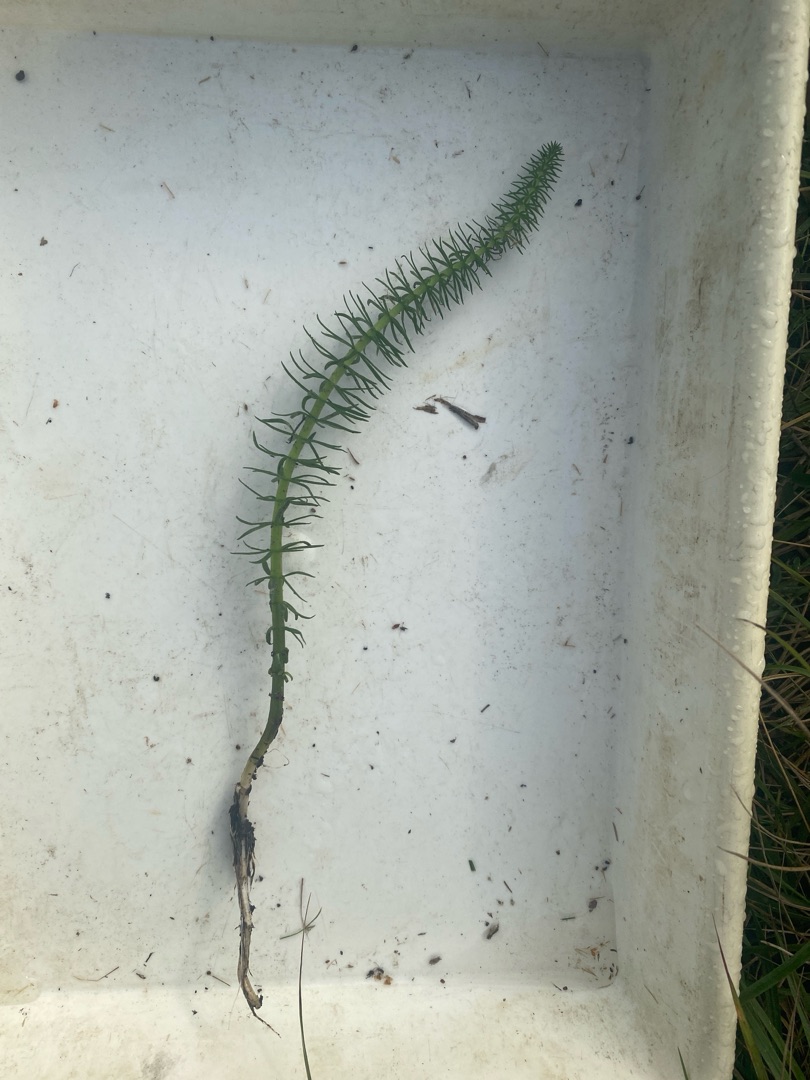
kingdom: Plantae
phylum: Tracheophyta
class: Magnoliopsida
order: Lamiales
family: Plantaginaceae
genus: Hippuris
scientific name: Hippuris vulgaris
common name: Vandspir
